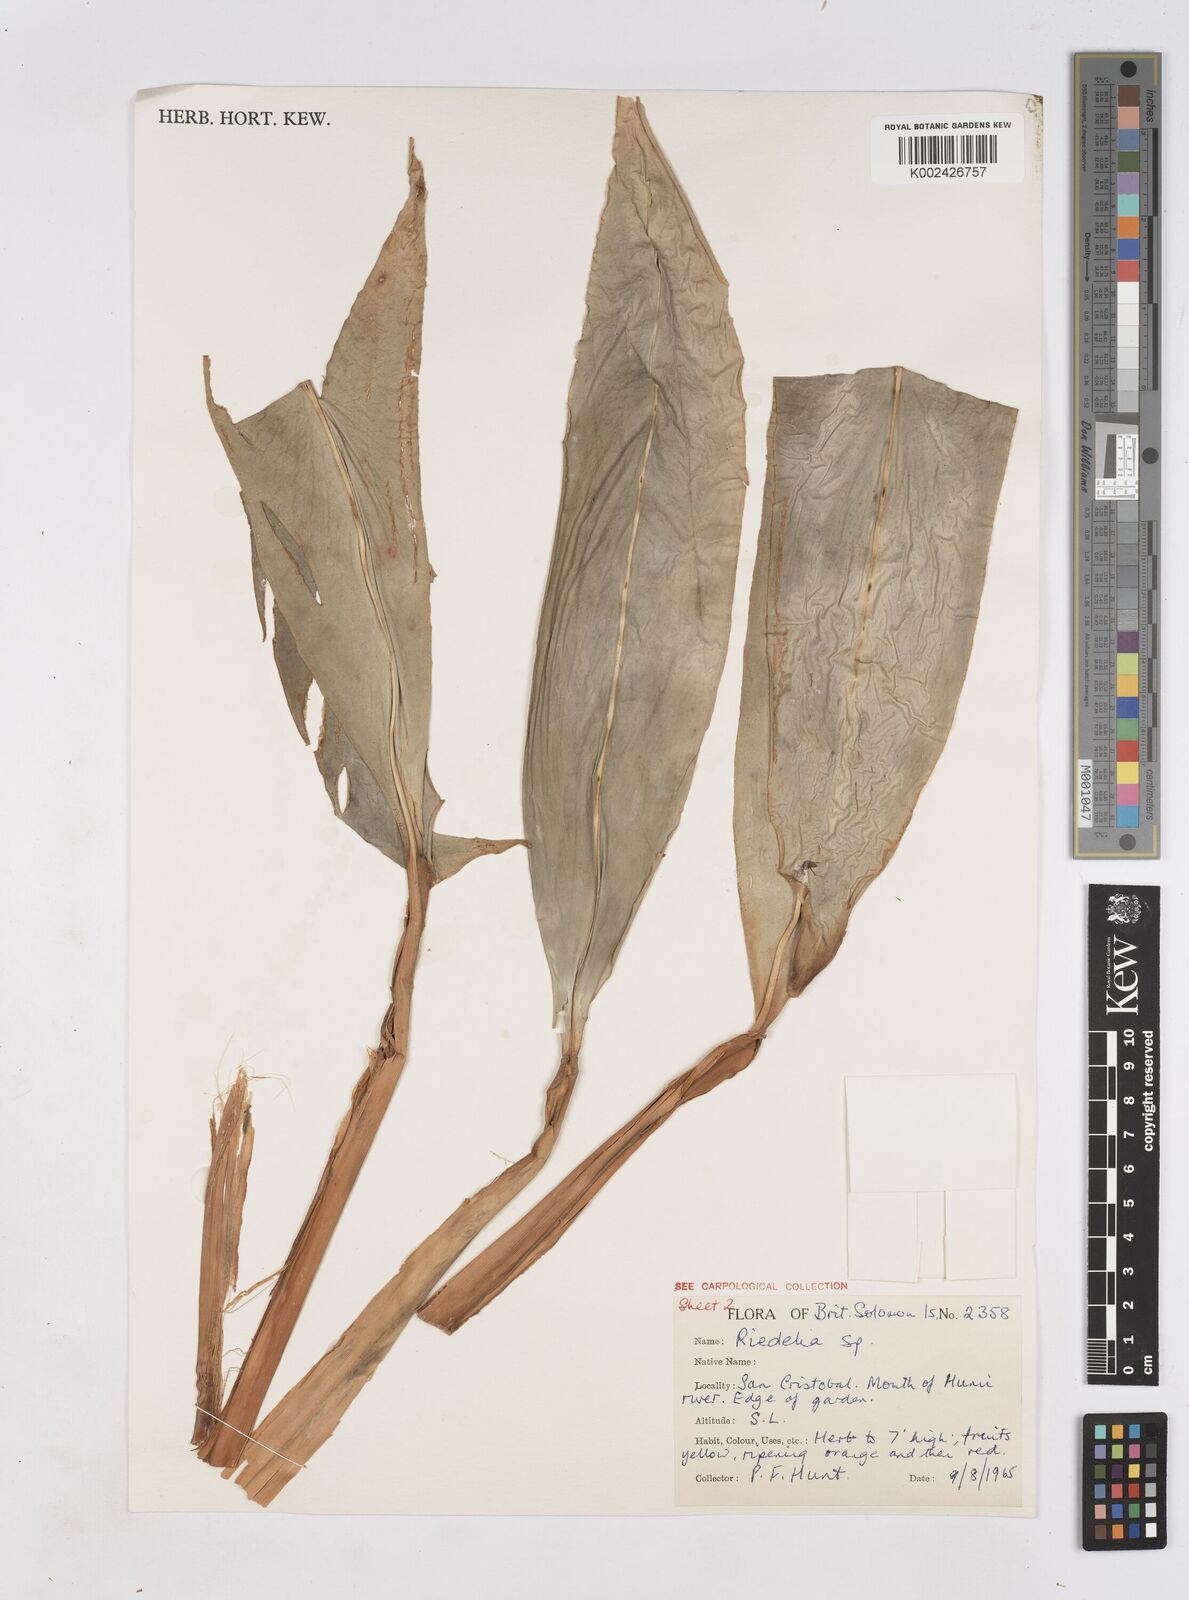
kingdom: Plantae
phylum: Tracheophyta
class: Liliopsida
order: Zingiberales
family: Zingiberaceae
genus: Riedelia
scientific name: Riedelia
